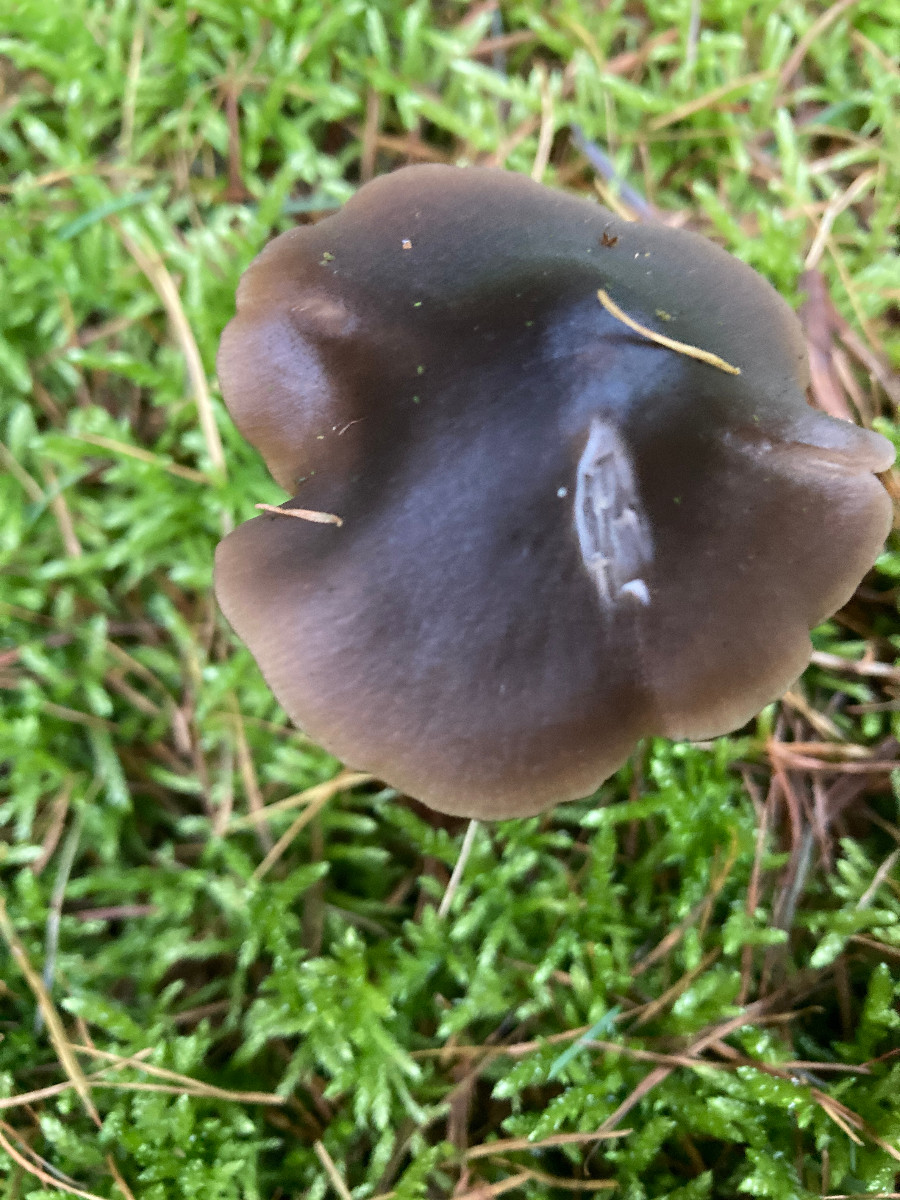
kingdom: Fungi
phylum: Basidiomycota
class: Agaricomycetes
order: Agaricales
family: Entolomataceae
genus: Entocybe
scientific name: Entocybe turbida
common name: plantage-rødblad
